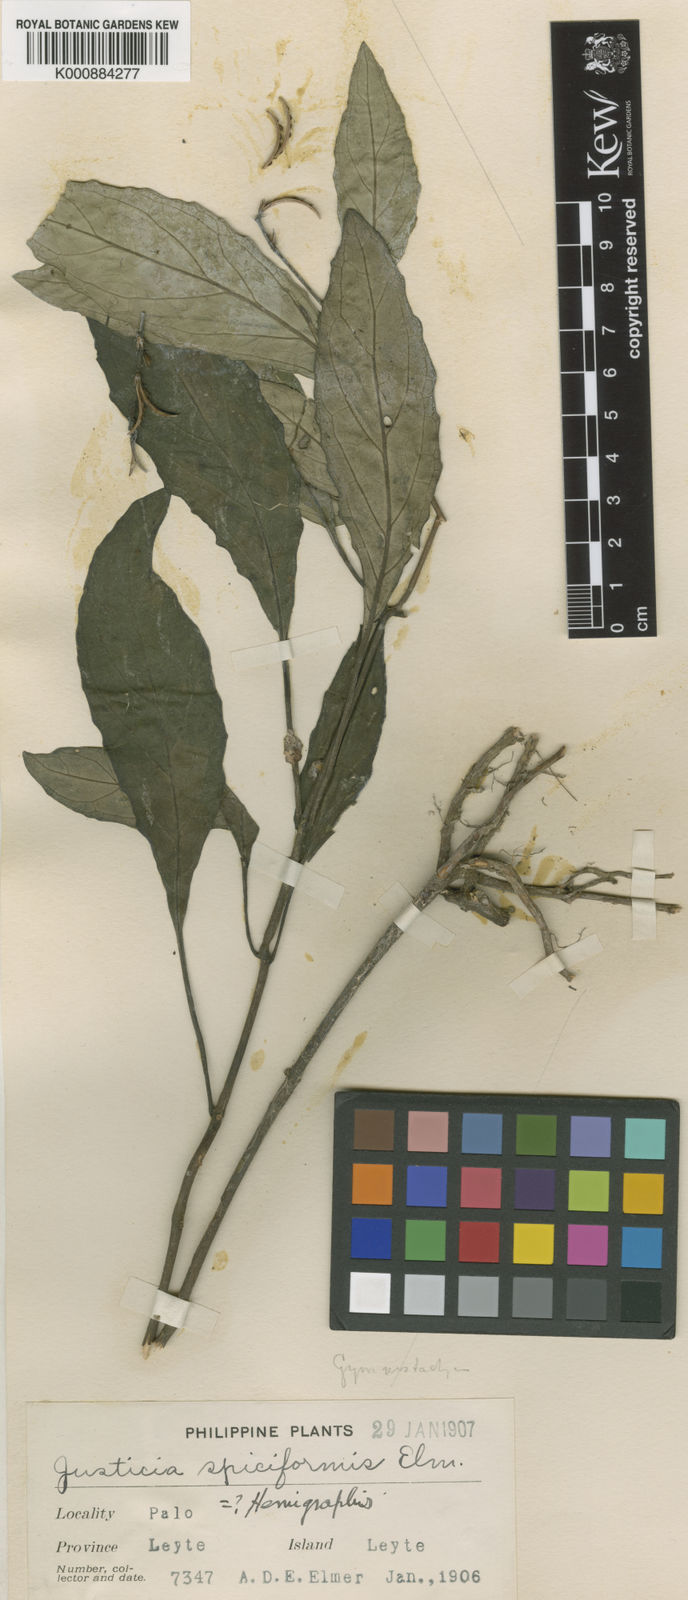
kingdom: Plantae
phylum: Tracheophyta
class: Magnoliopsida
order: Lamiales
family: Acanthaceae
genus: Gymnostachyum
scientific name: Gymnostachyum spiciforme
